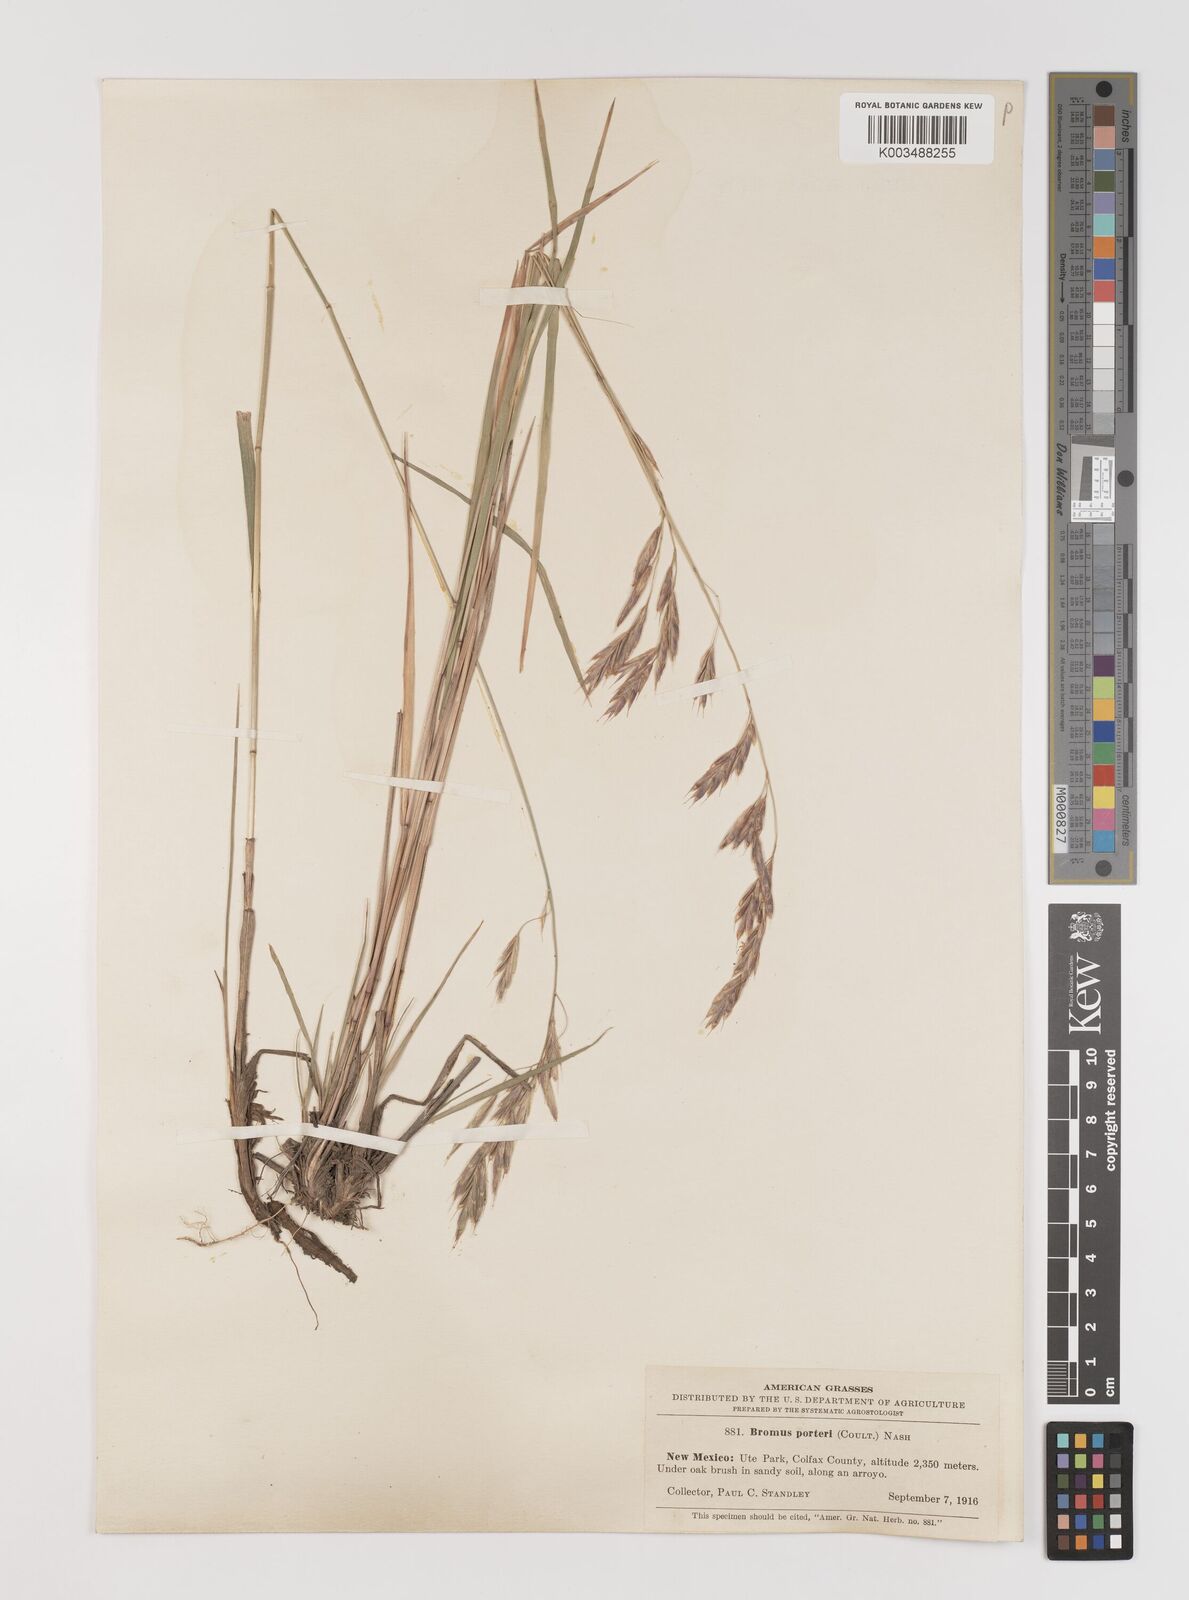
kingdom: Plantae
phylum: Tracheophyta
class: Liliopsida
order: Poales
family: Poaceae
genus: Bromus
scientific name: Bromus porteri
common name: Nodding brome
